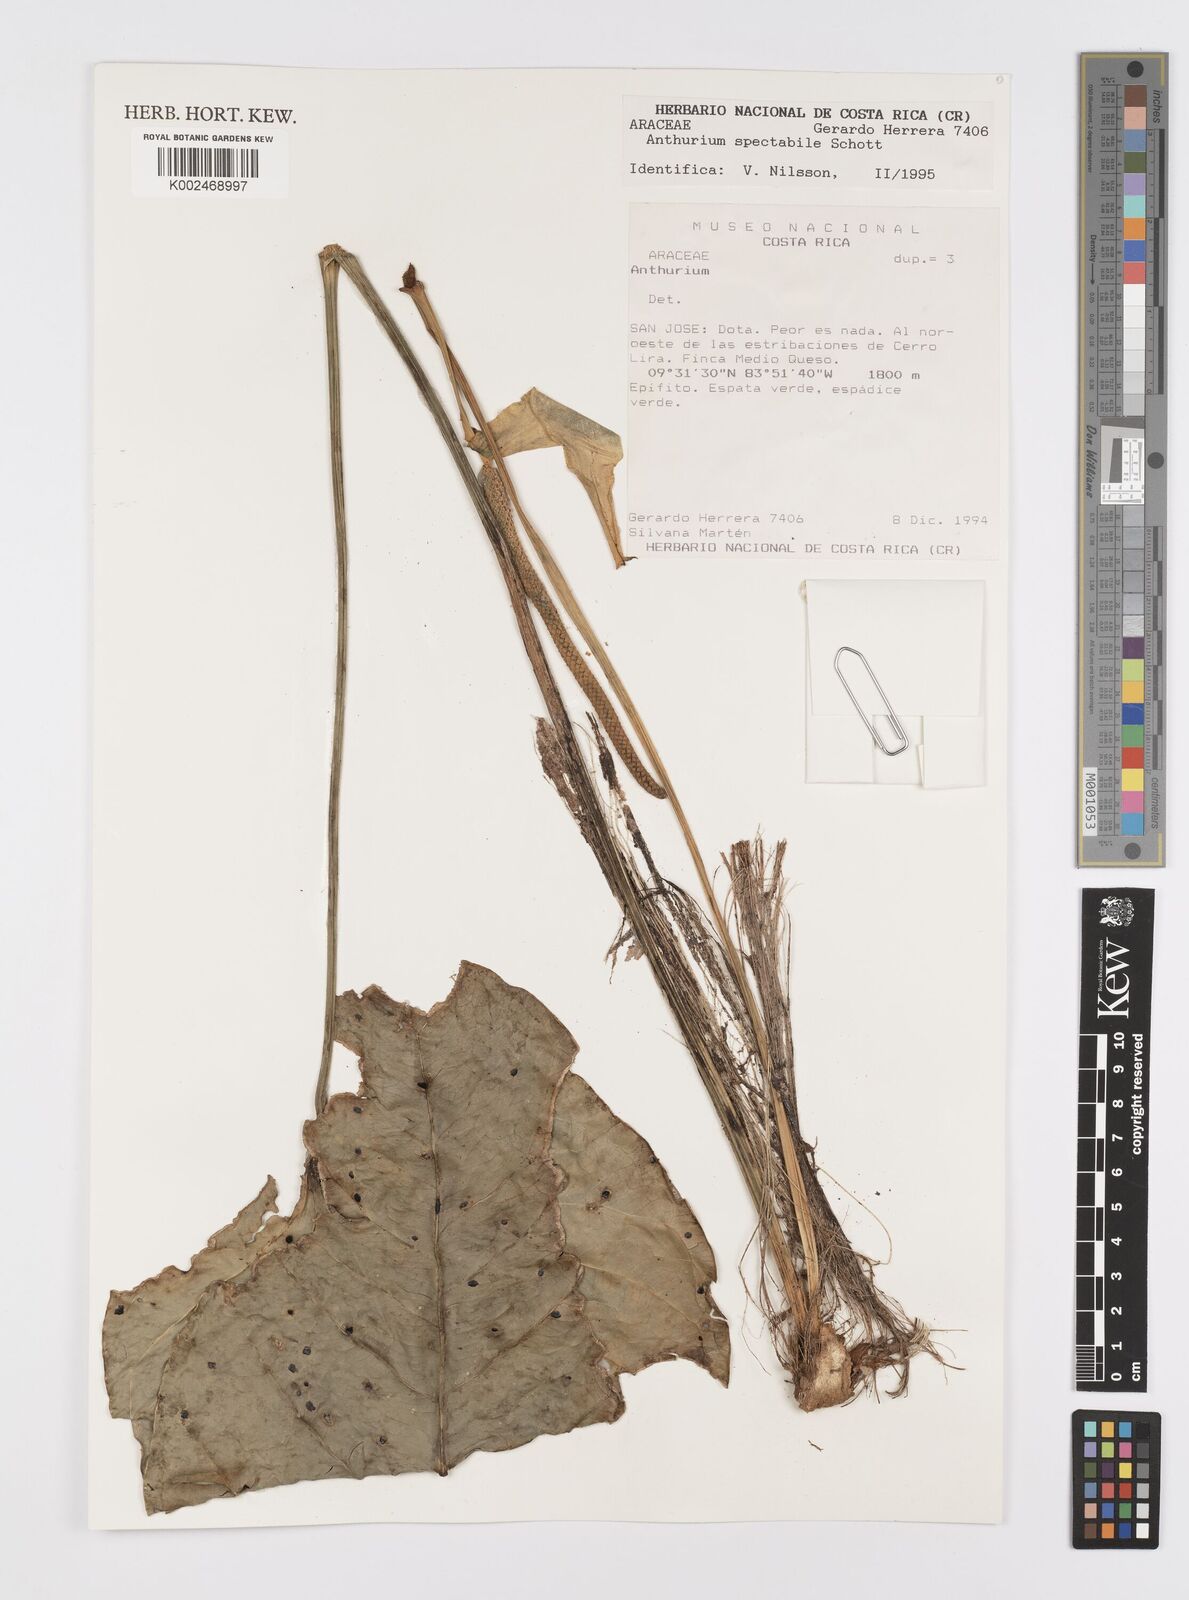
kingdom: Plantae
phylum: Tracheophyta
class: Liliopsida
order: Alismatales
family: Araceae
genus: Anthurium
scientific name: Anthurium spectabile
